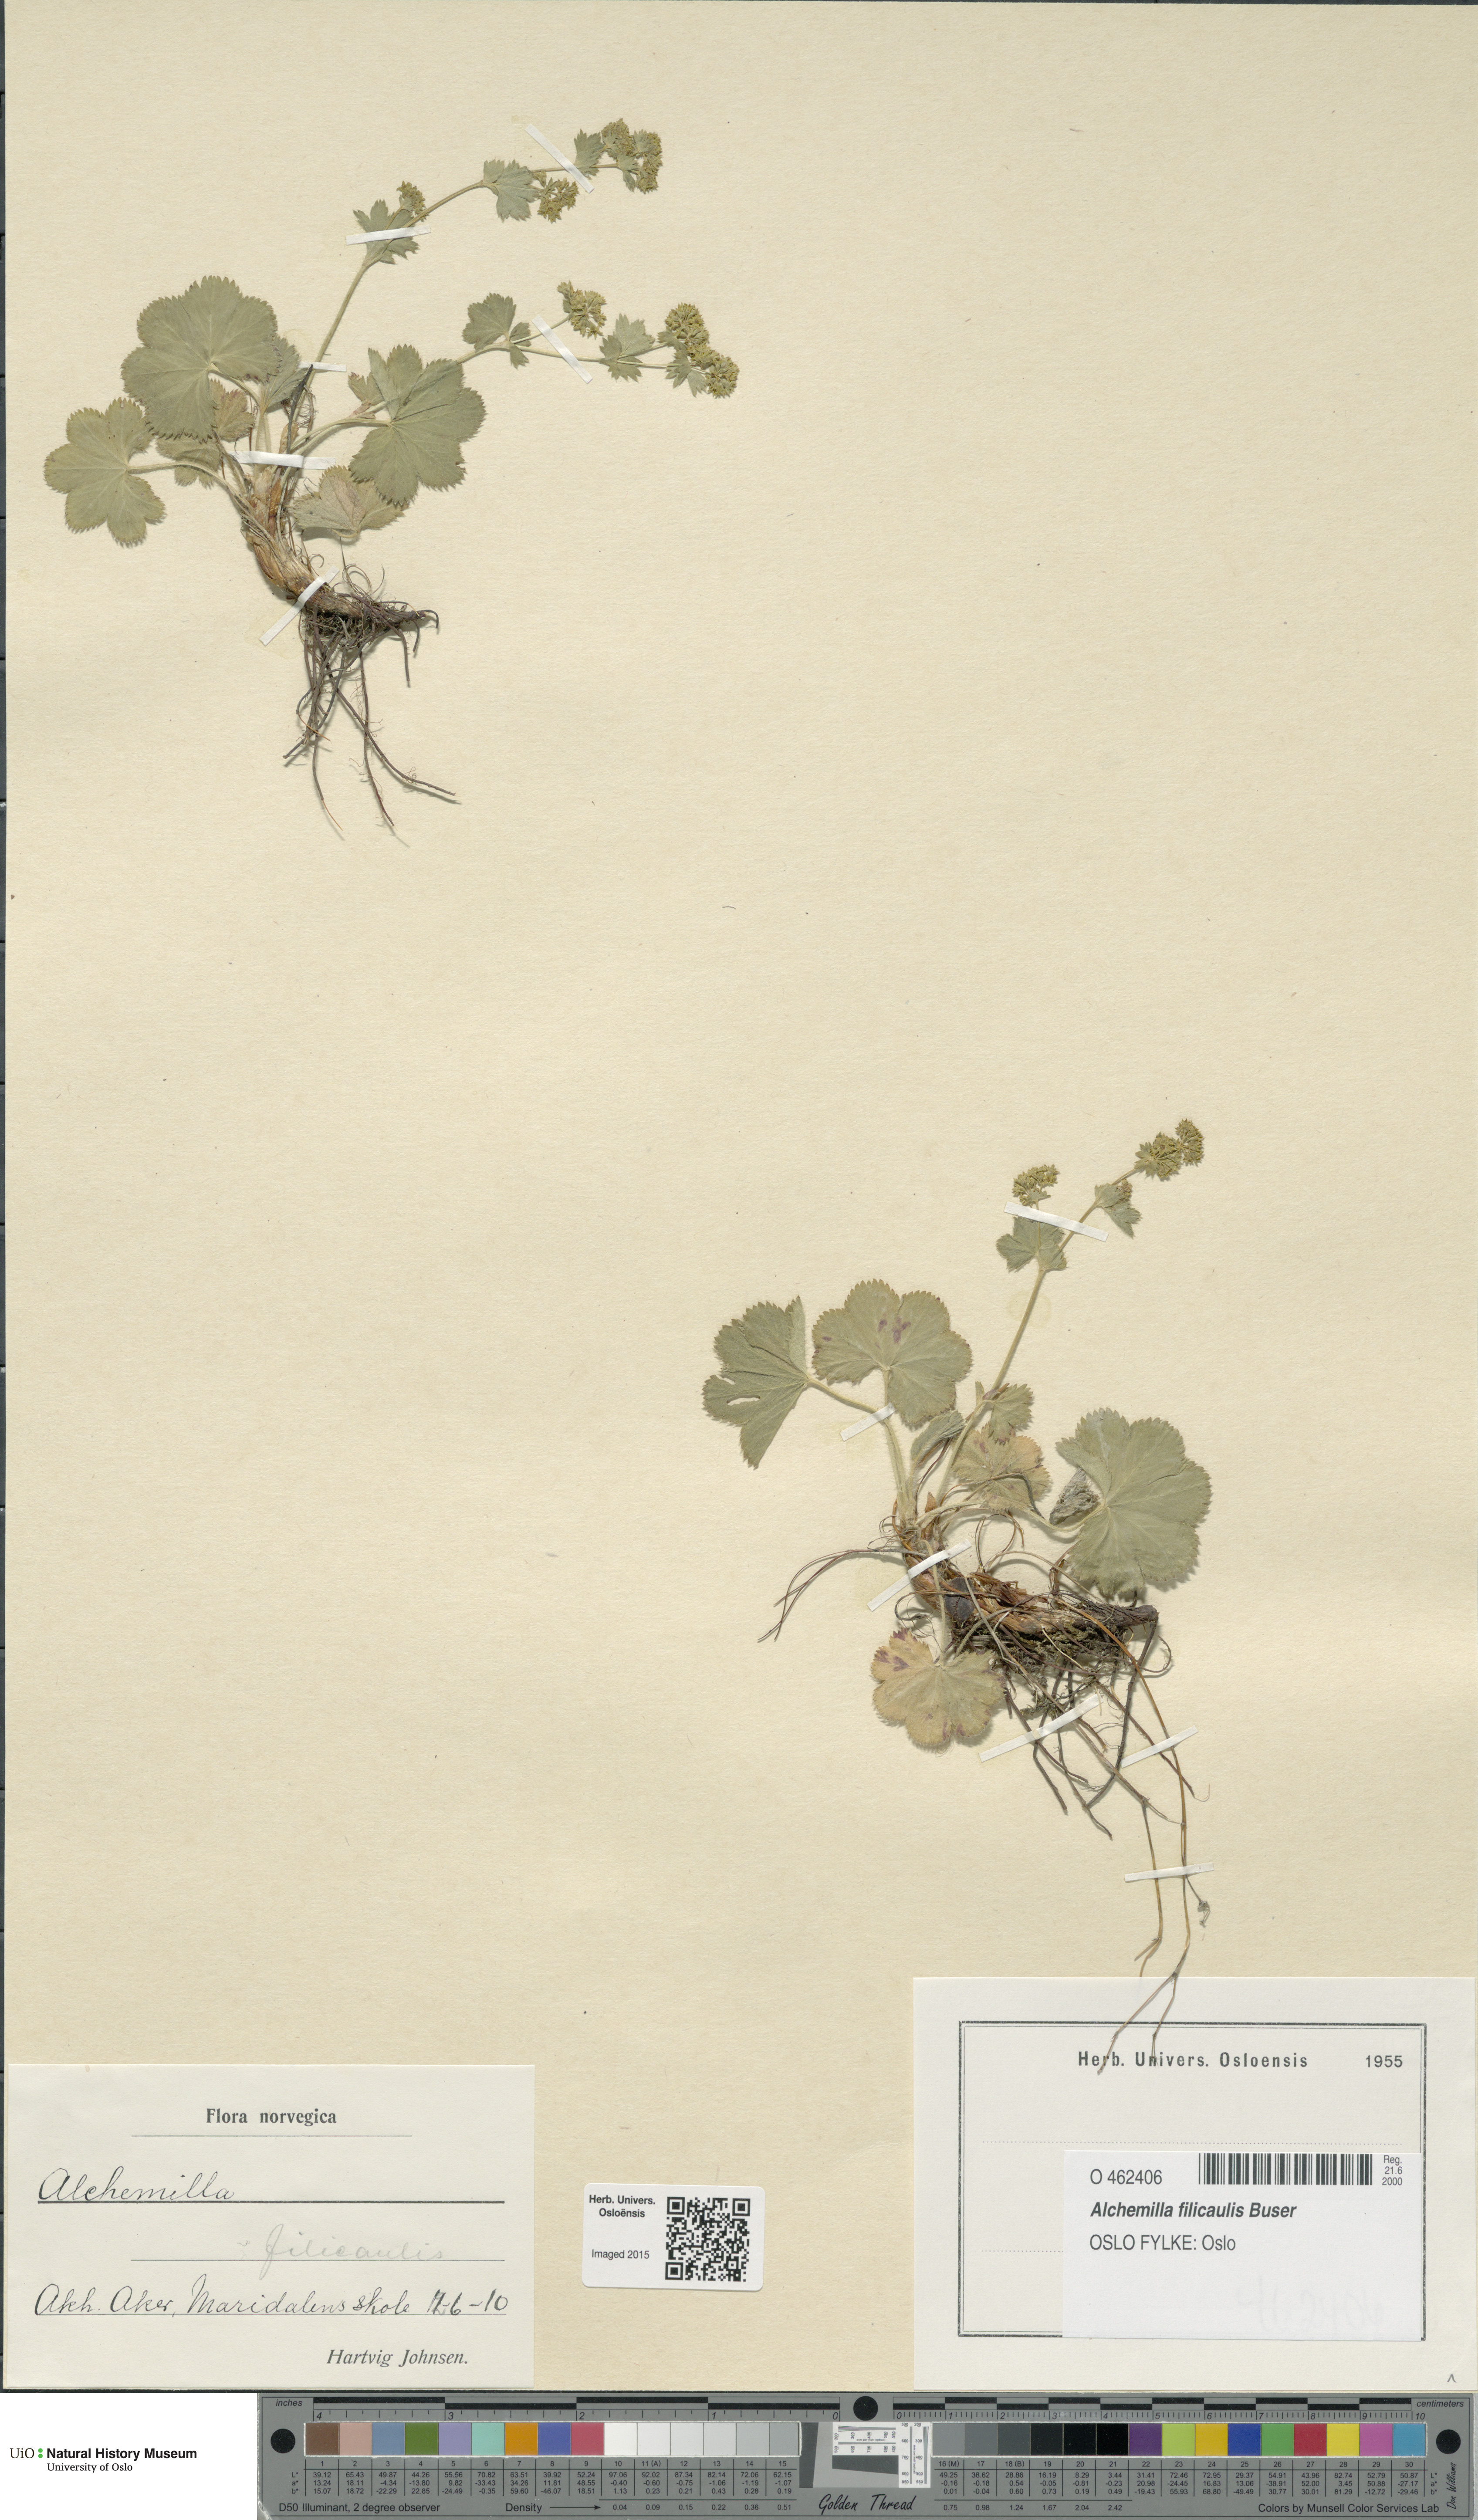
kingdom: Plantae
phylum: Tracheophyta
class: Magnoliopsida
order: Rosales
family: Rosaceae
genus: Alchemilla
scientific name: Alchemilla filicaulis
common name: Hairy lady's-mantle
